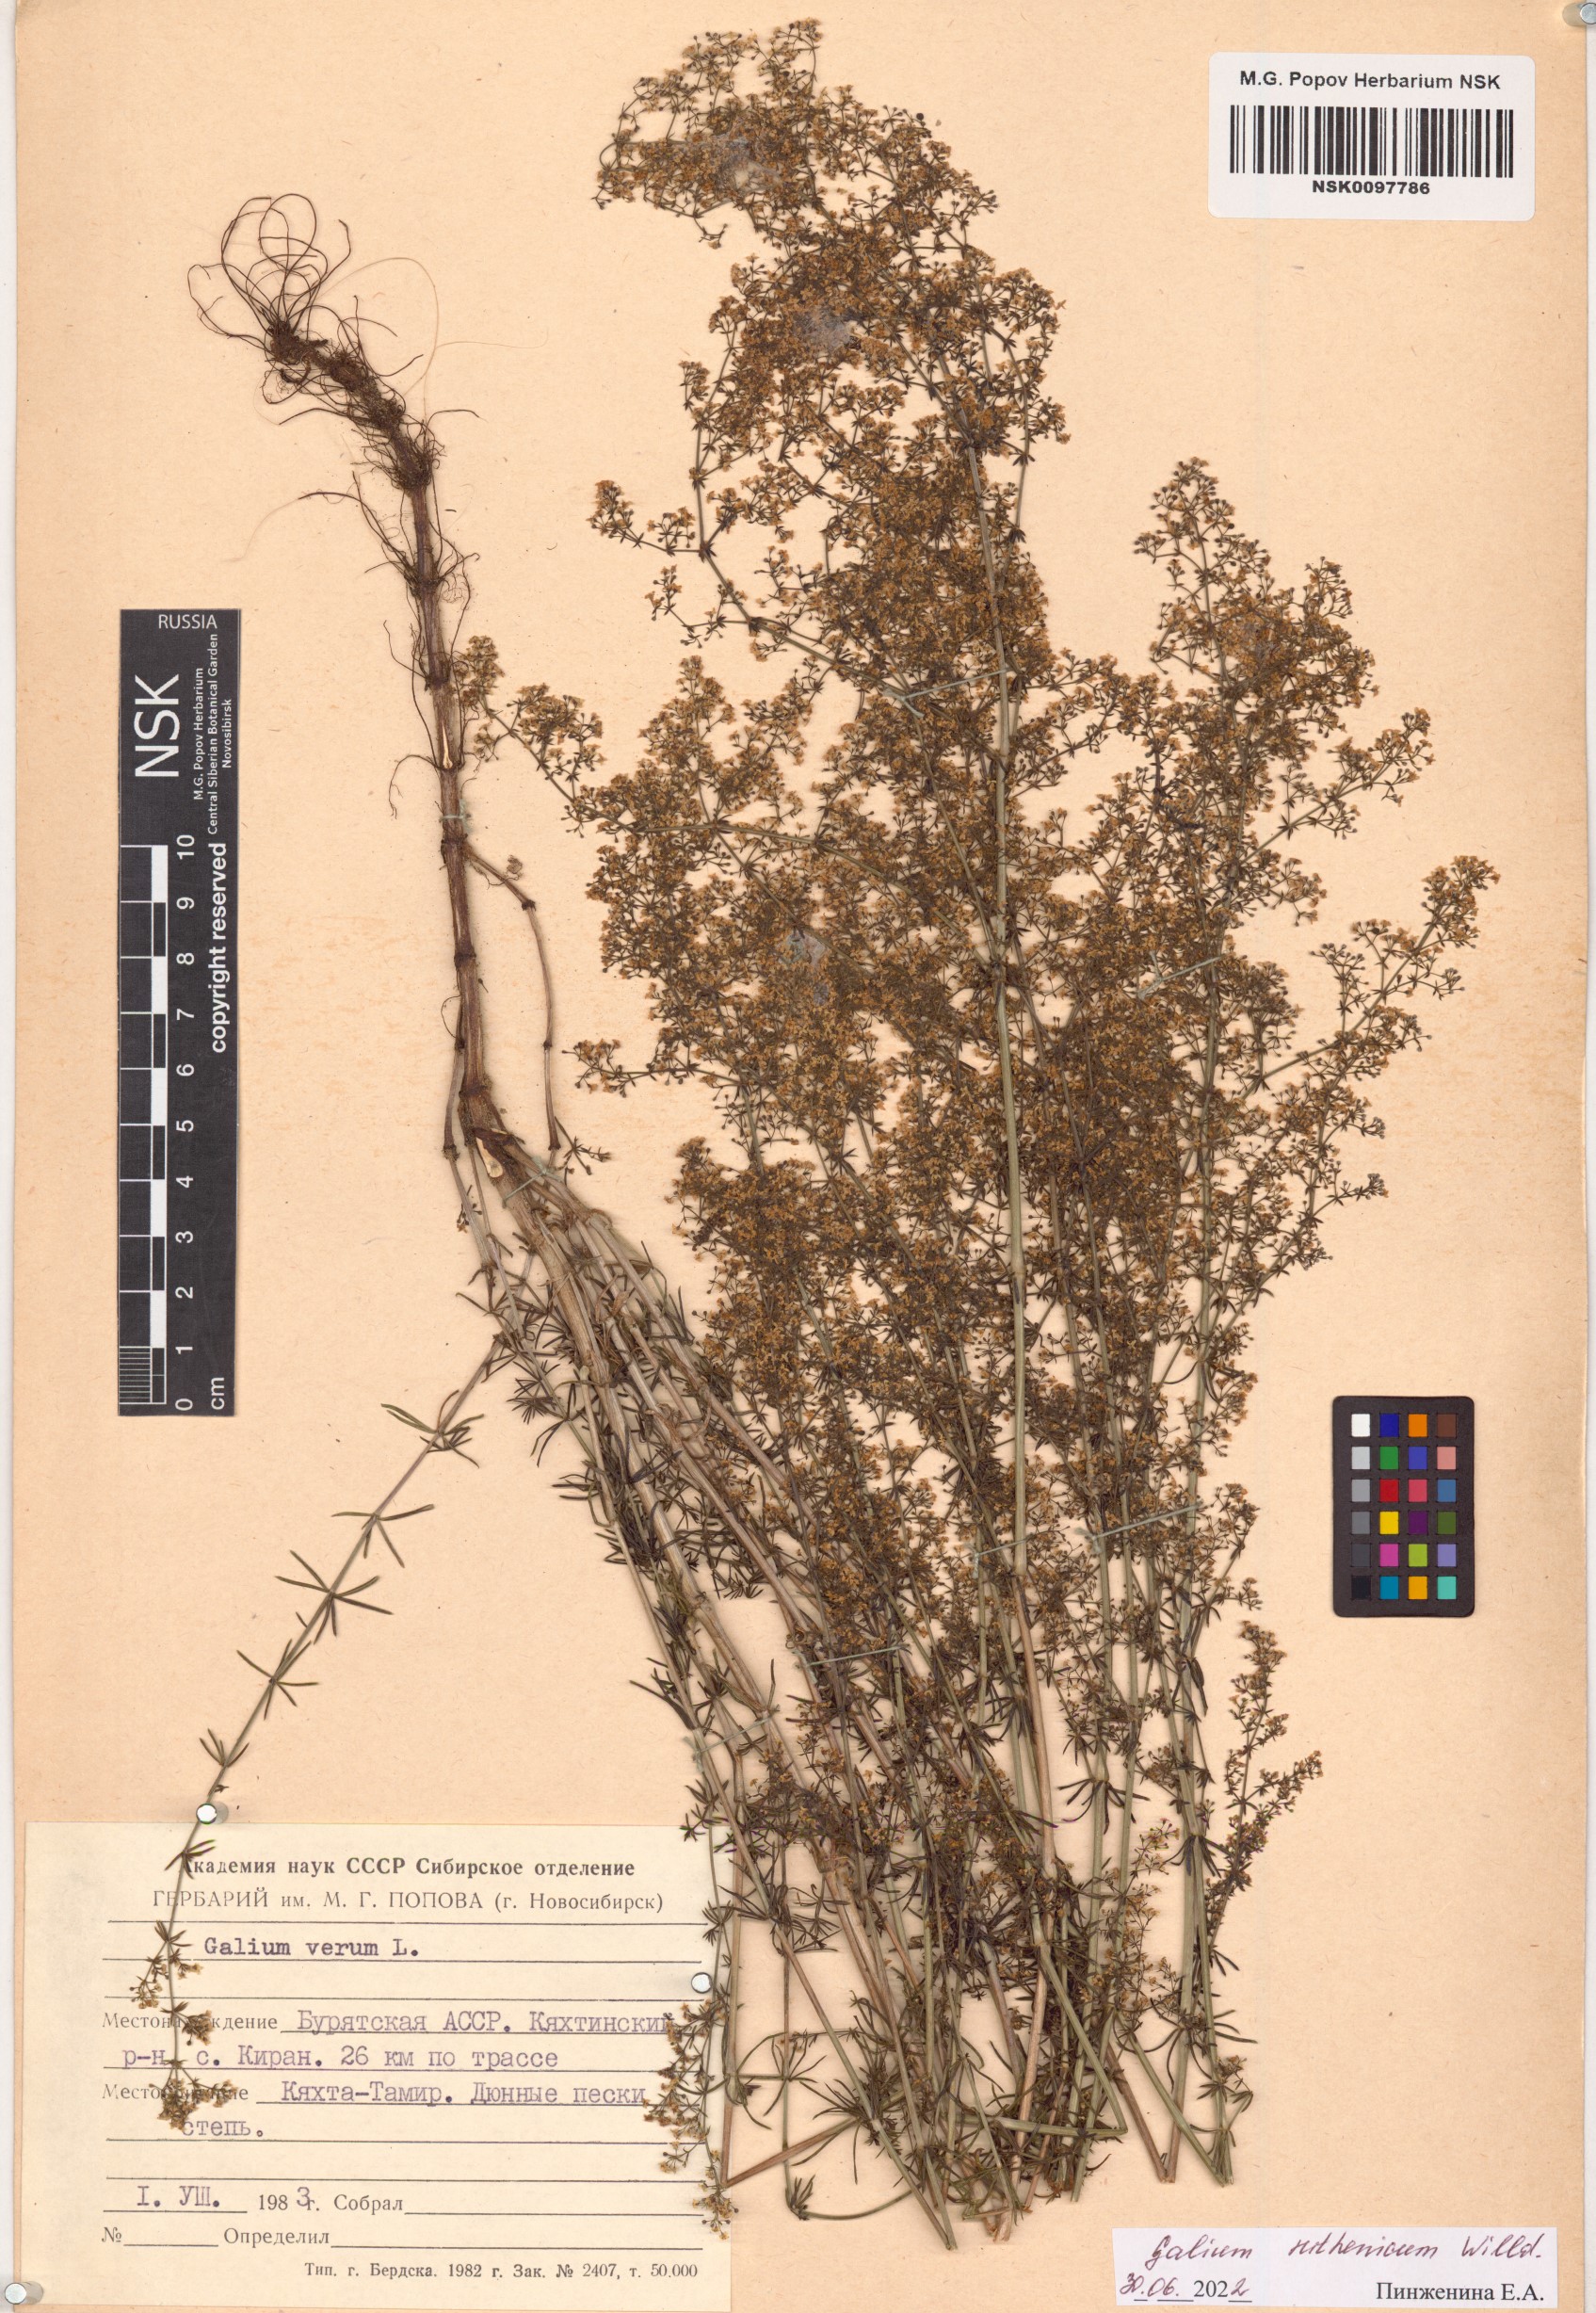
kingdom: Plantae
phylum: Tracheophyta
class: Magnoliopsida
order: Gentianales
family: Rubiaceae
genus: Galium
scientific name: Galium verum
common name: Lady's bedstraw
